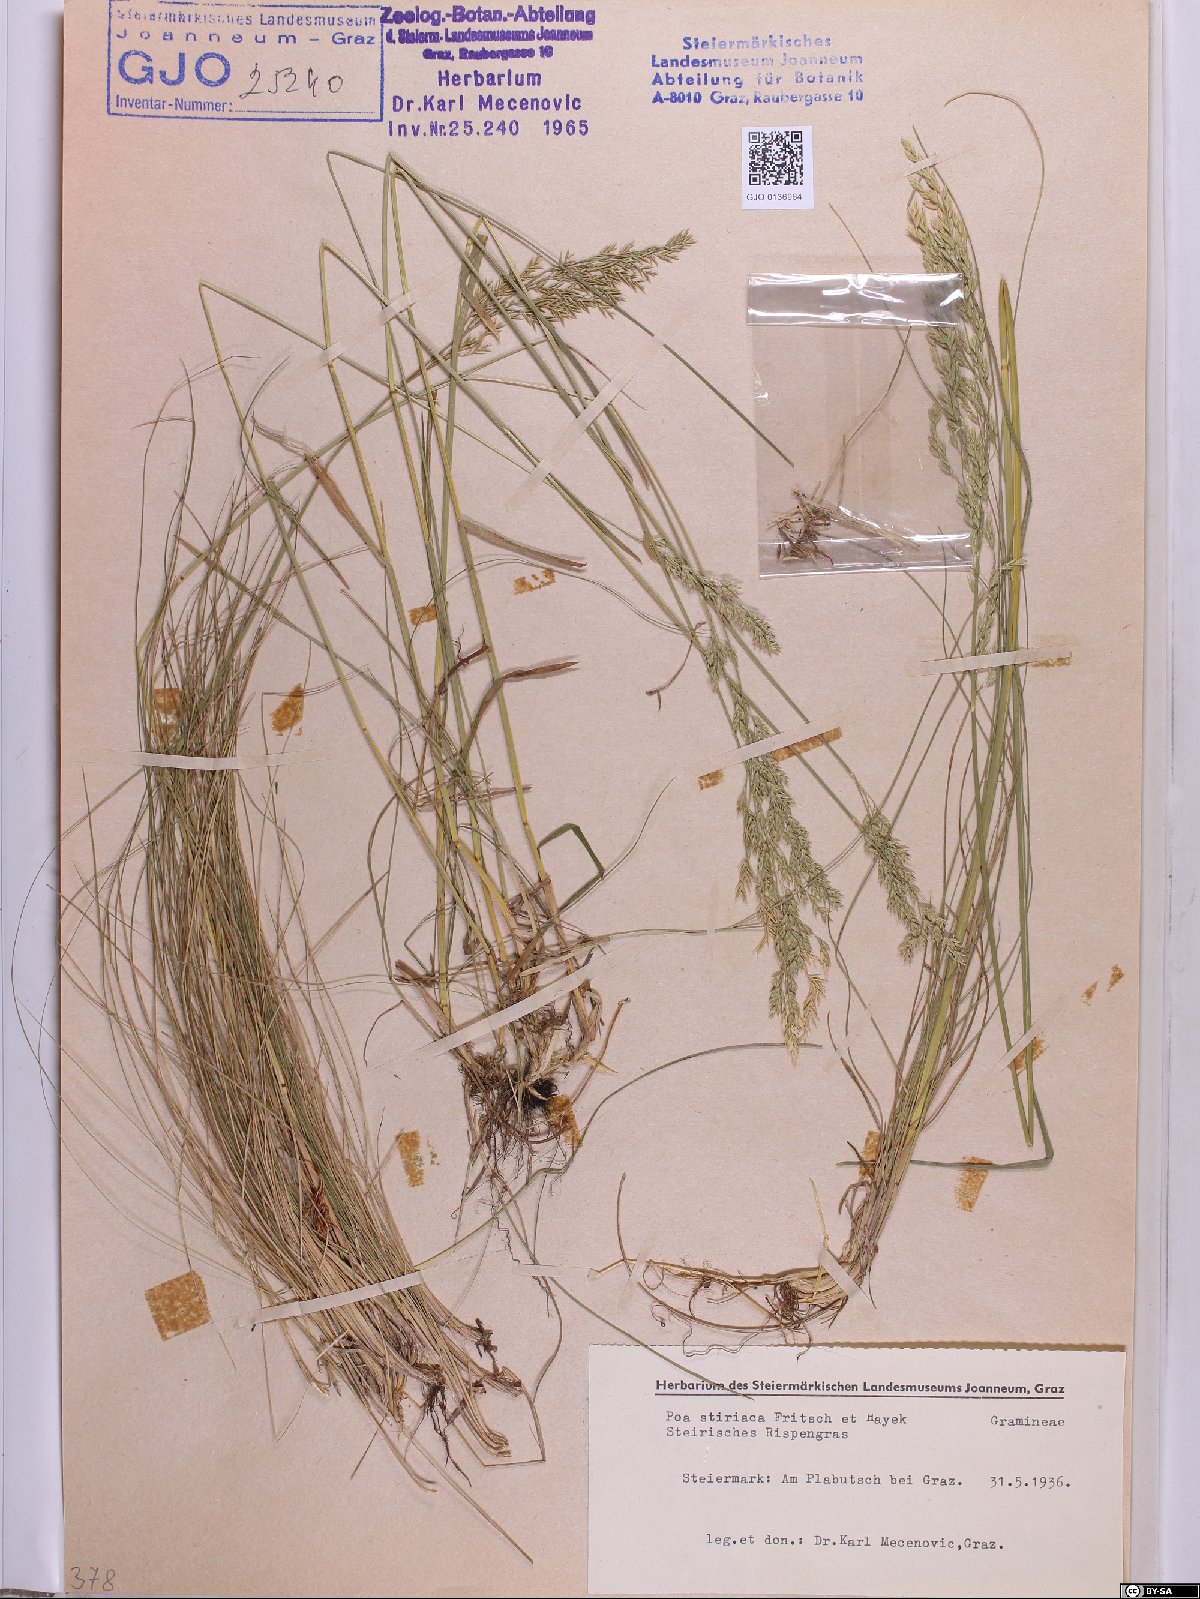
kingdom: Plantae
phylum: Tracheophyta
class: Liliopsida
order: Poales
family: Poaceae
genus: Poa
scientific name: Poa stiriaca
